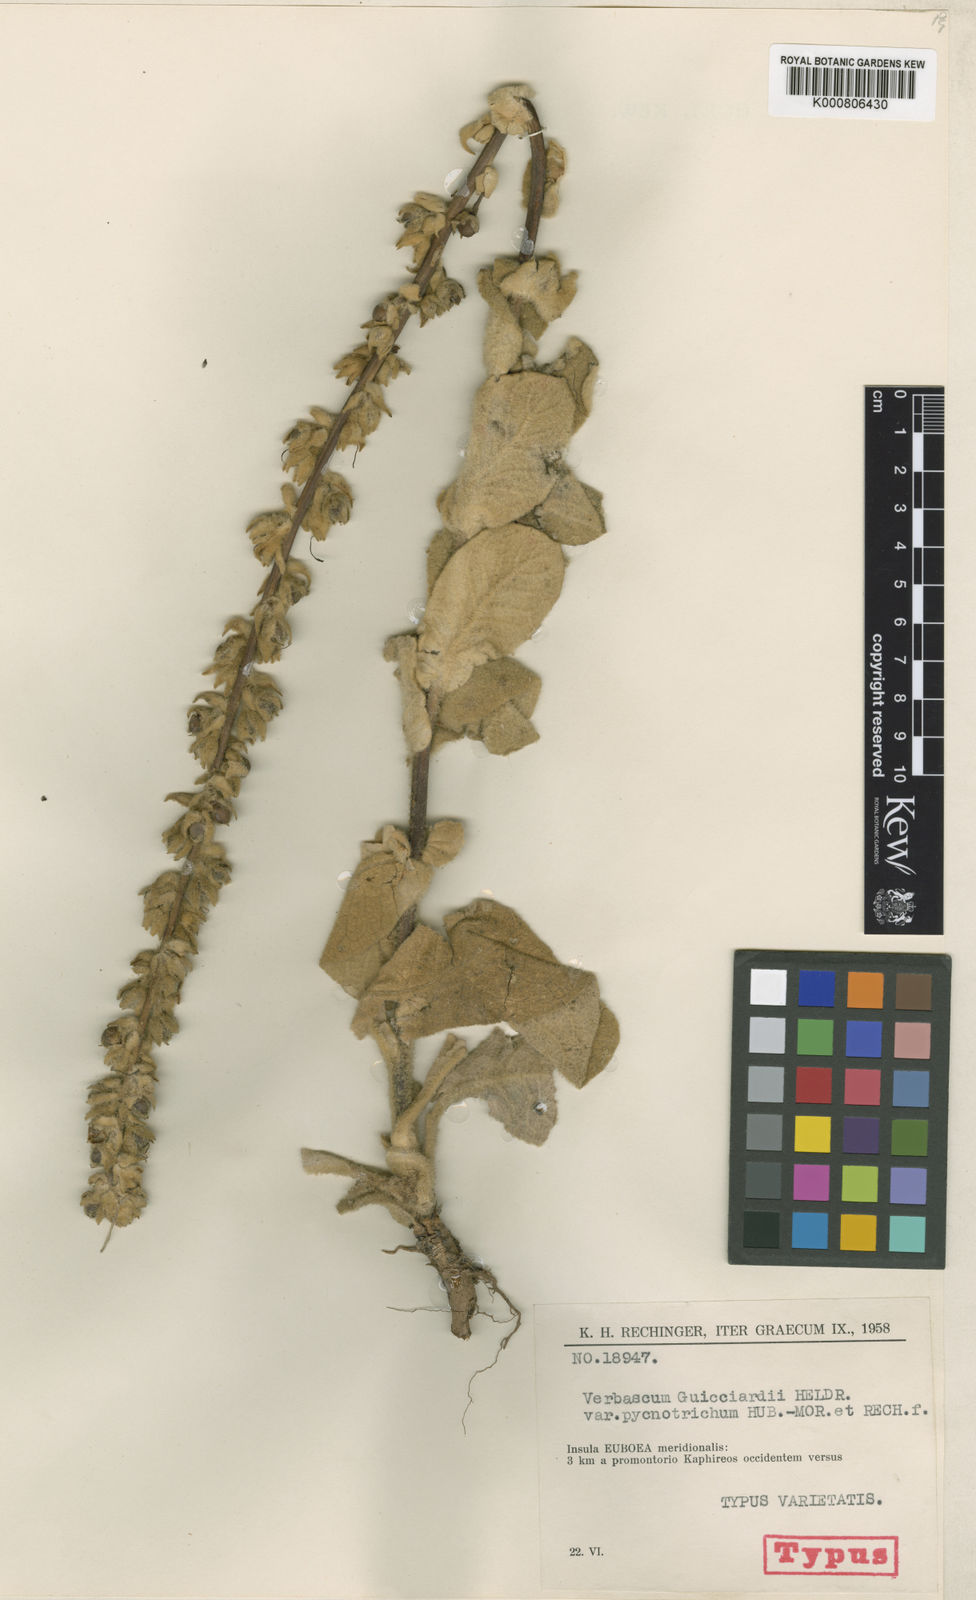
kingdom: Plantae
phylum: Tracheophyta
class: Magnoliopsida
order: Lamiales
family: Scrophulariaceae
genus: Verbascum
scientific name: Verbascum
